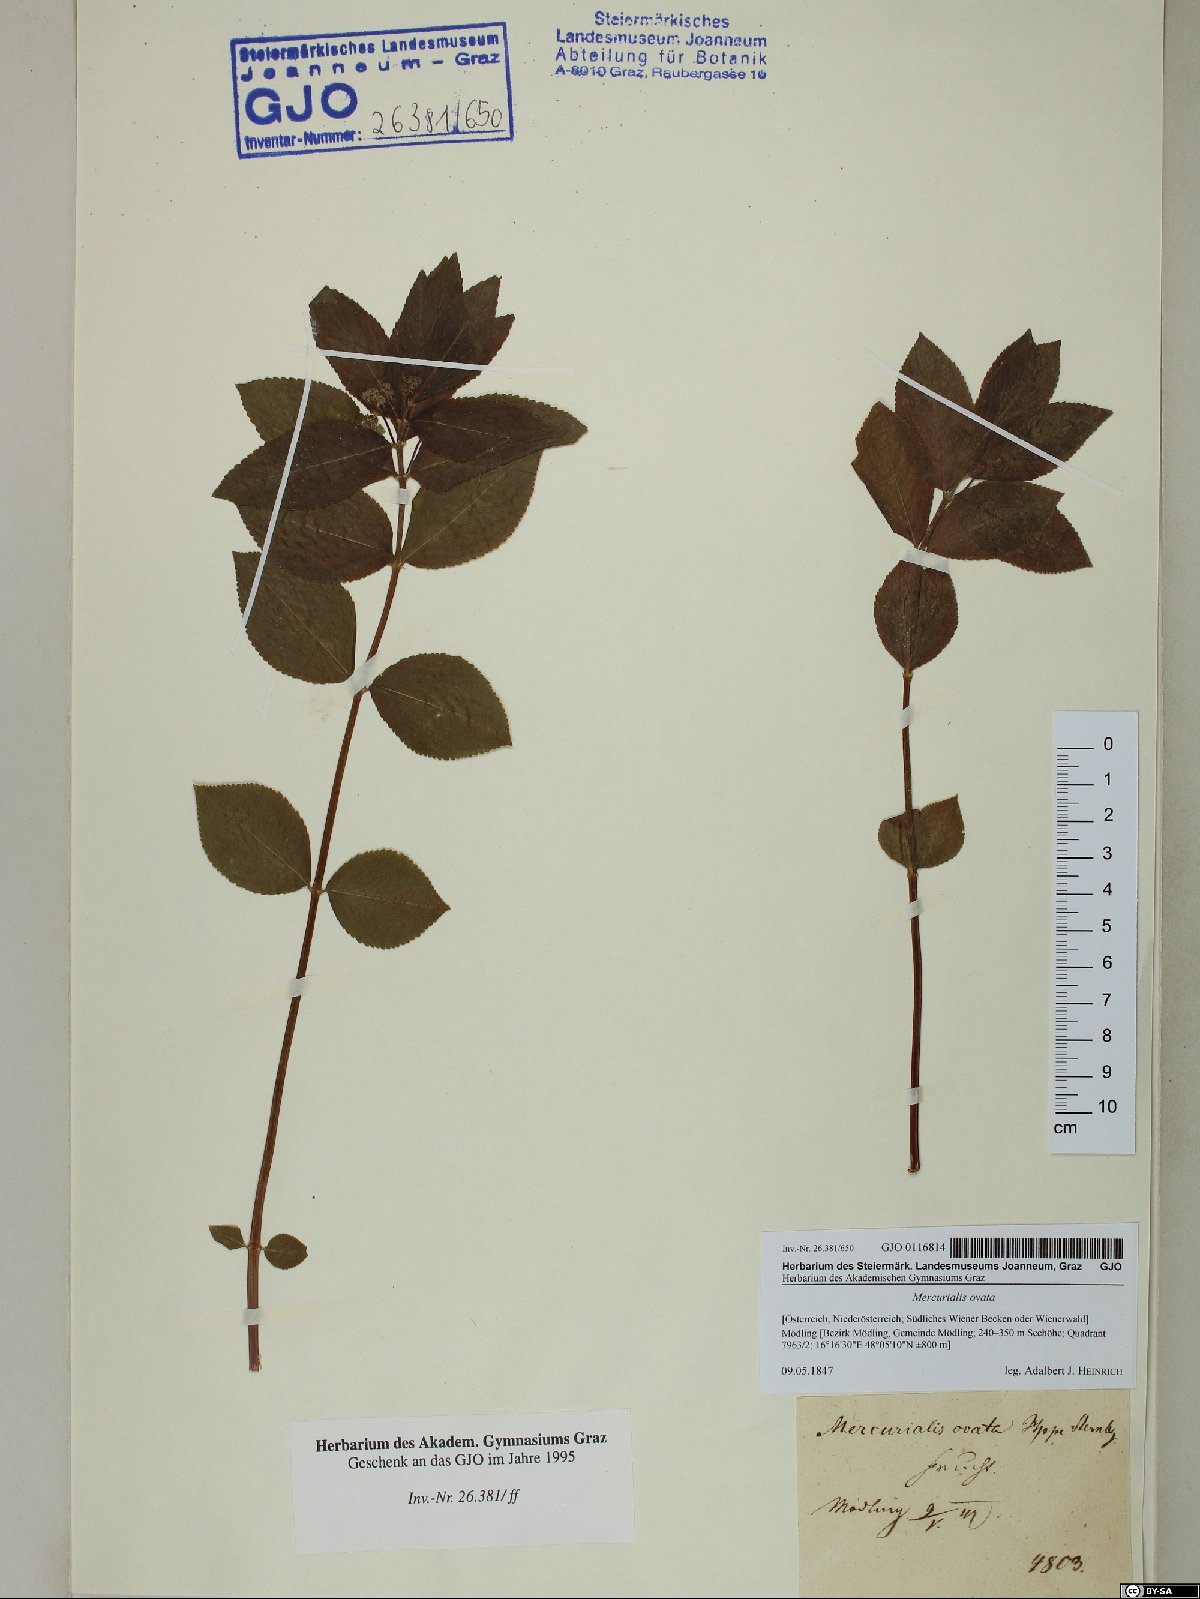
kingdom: Plantae
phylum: Tracheophyta
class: Magnoliopsida
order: Malpighiales
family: Euphorbiaceae
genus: Mercurialis
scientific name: Mercurialis ovata
